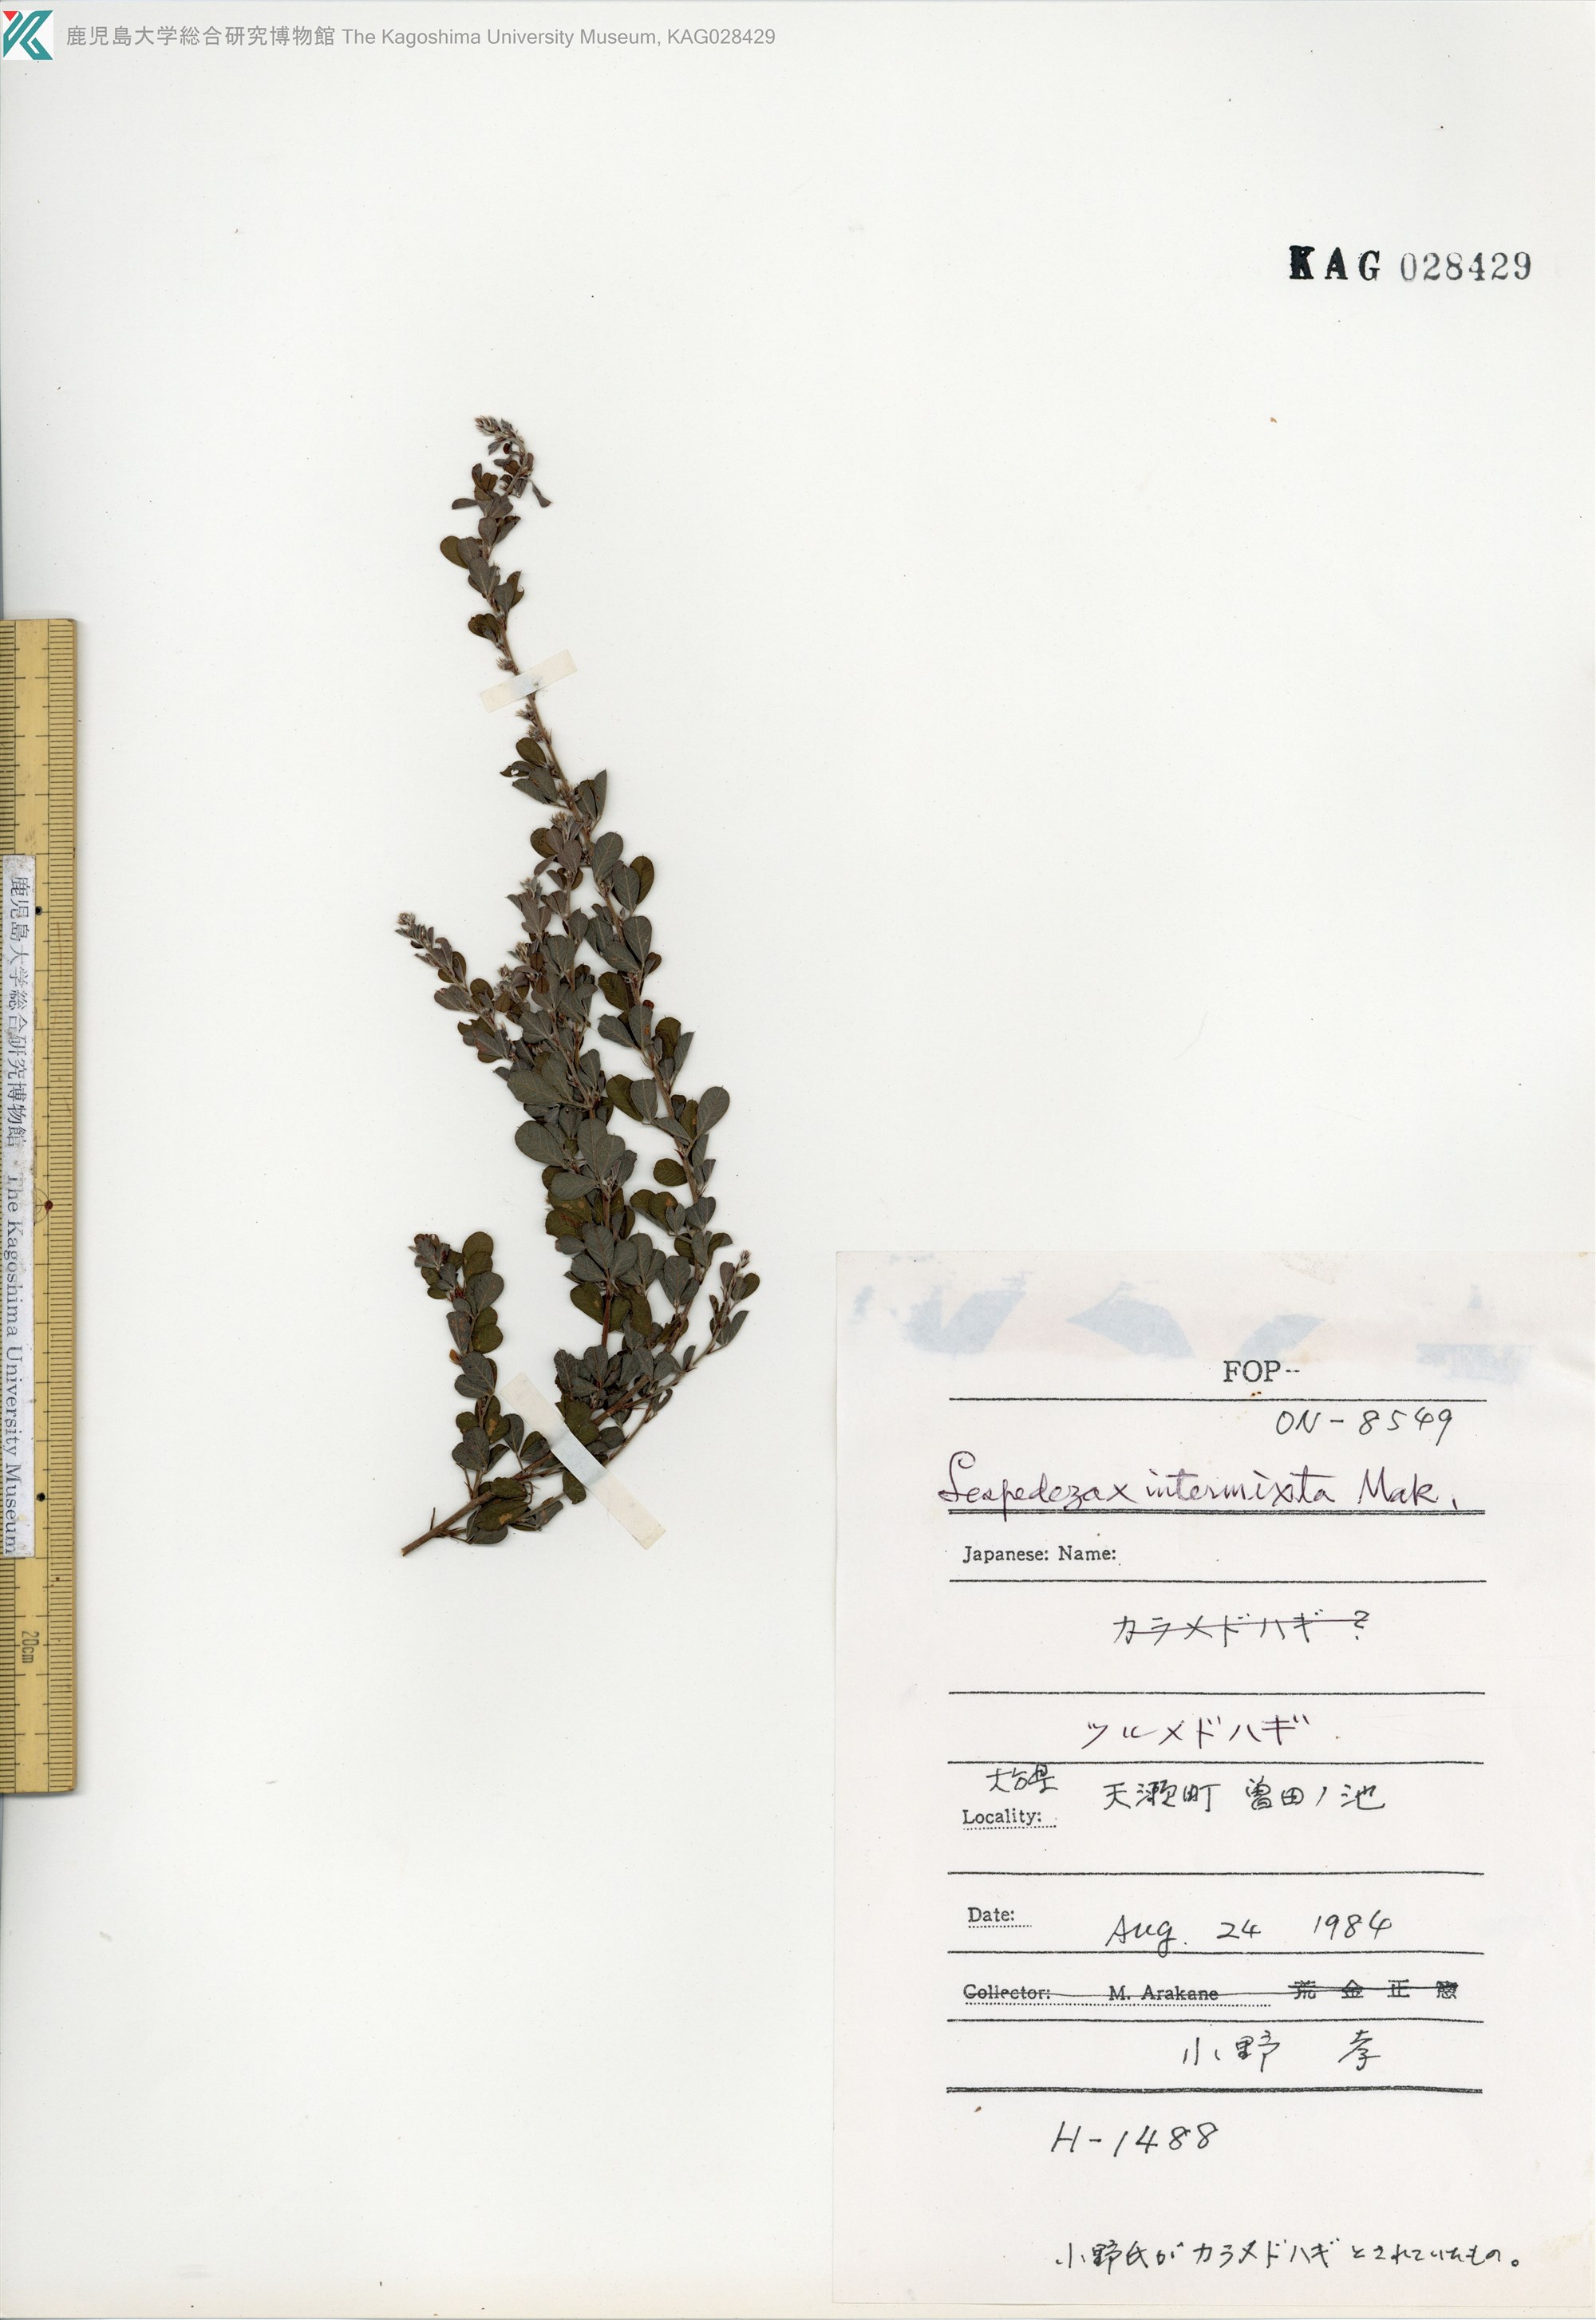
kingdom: Plantae
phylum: Tracheophyta
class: Magnoliopsida
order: Fabales
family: Fabaceae
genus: Lespedeza
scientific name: Lespedeza intermixta
